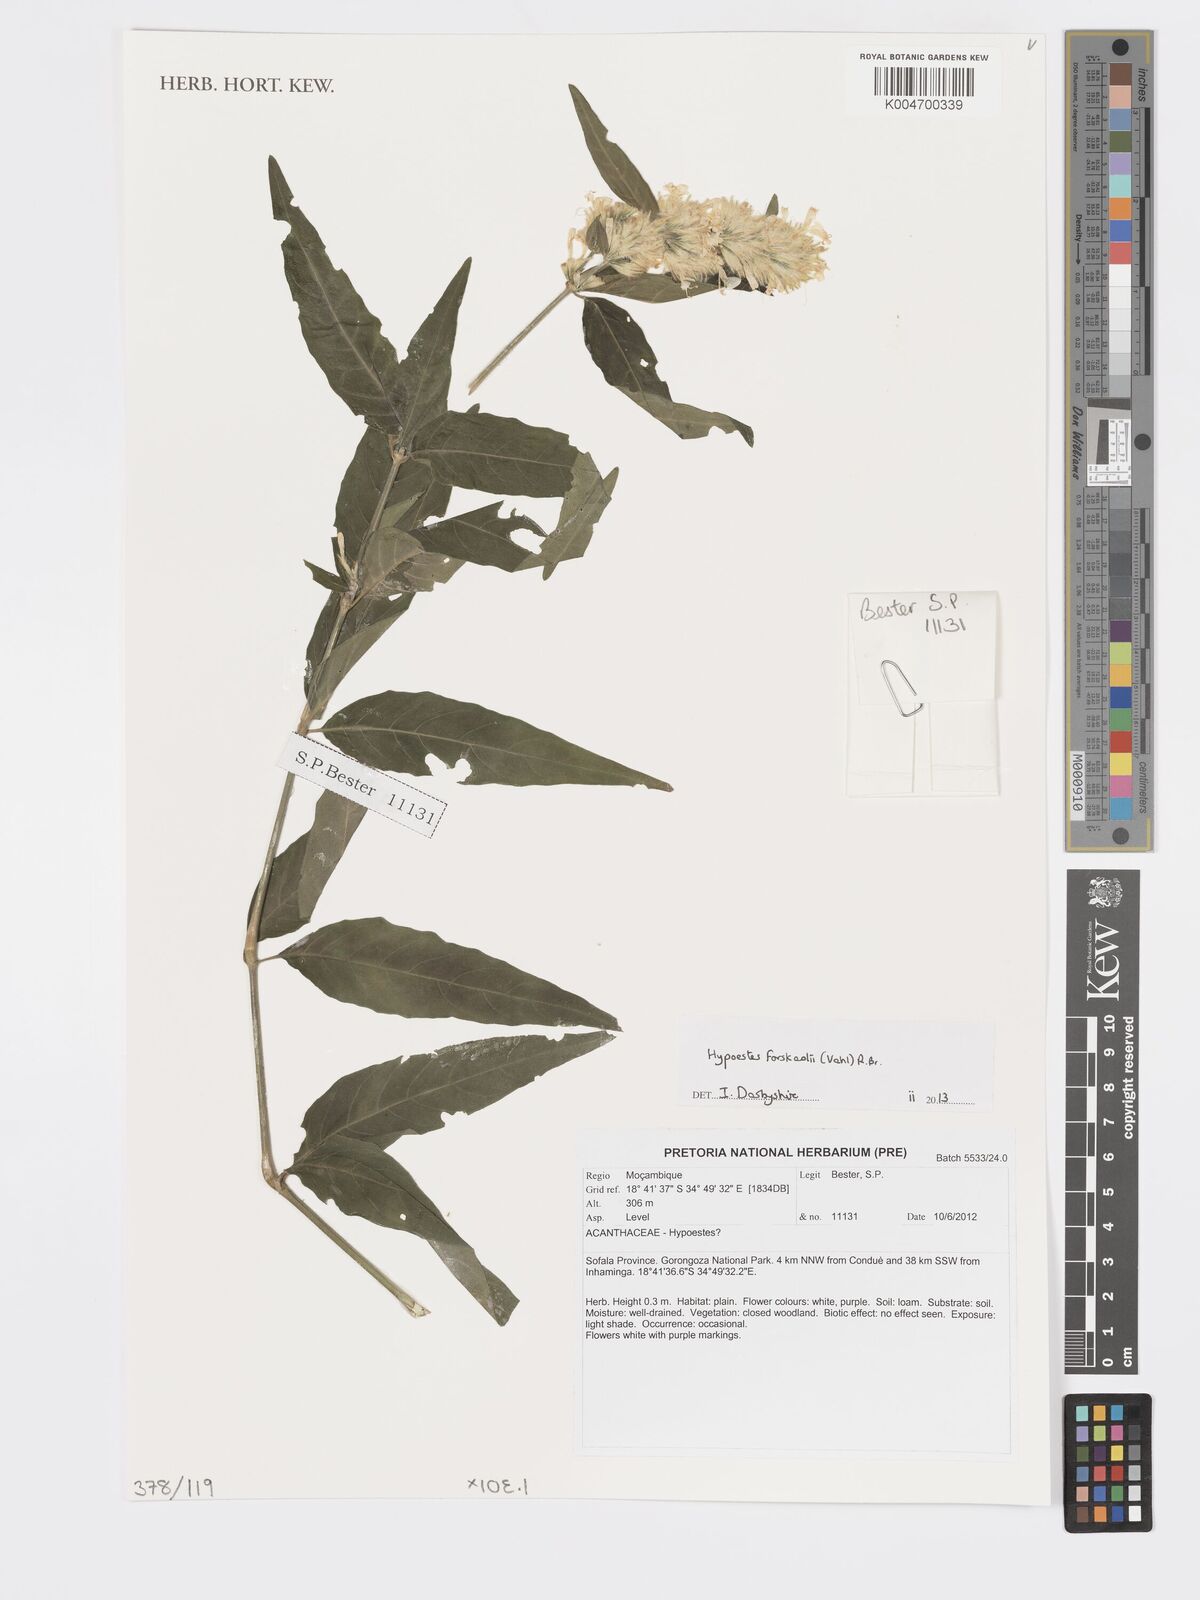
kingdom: Plantae
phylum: Tracheophyta
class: Magnoliopsida
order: Lamiales
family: Acanthaceae
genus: Hypoestes
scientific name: Hypoestes forskaolii
